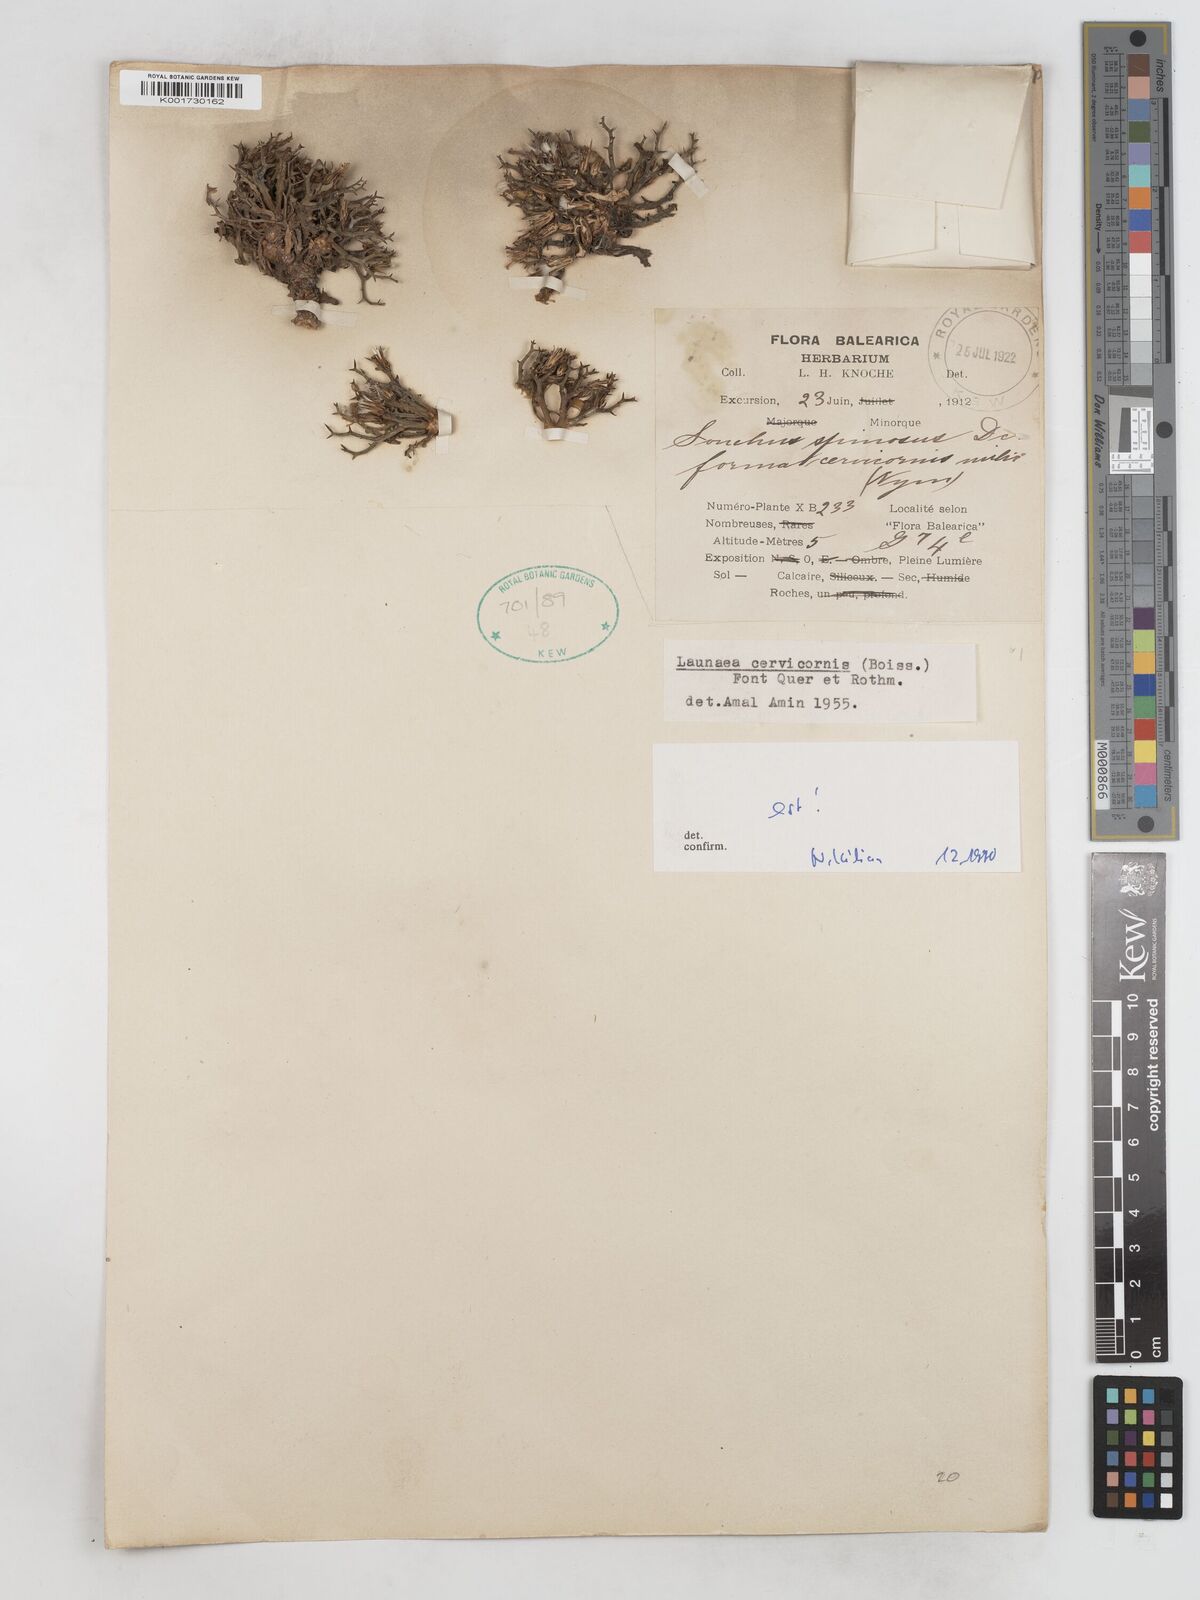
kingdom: Plantae
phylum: Tracheophyta
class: Magnoliopsida
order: Asterales
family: Asteraceae
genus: Launaea
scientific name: Launaea cervicornis
